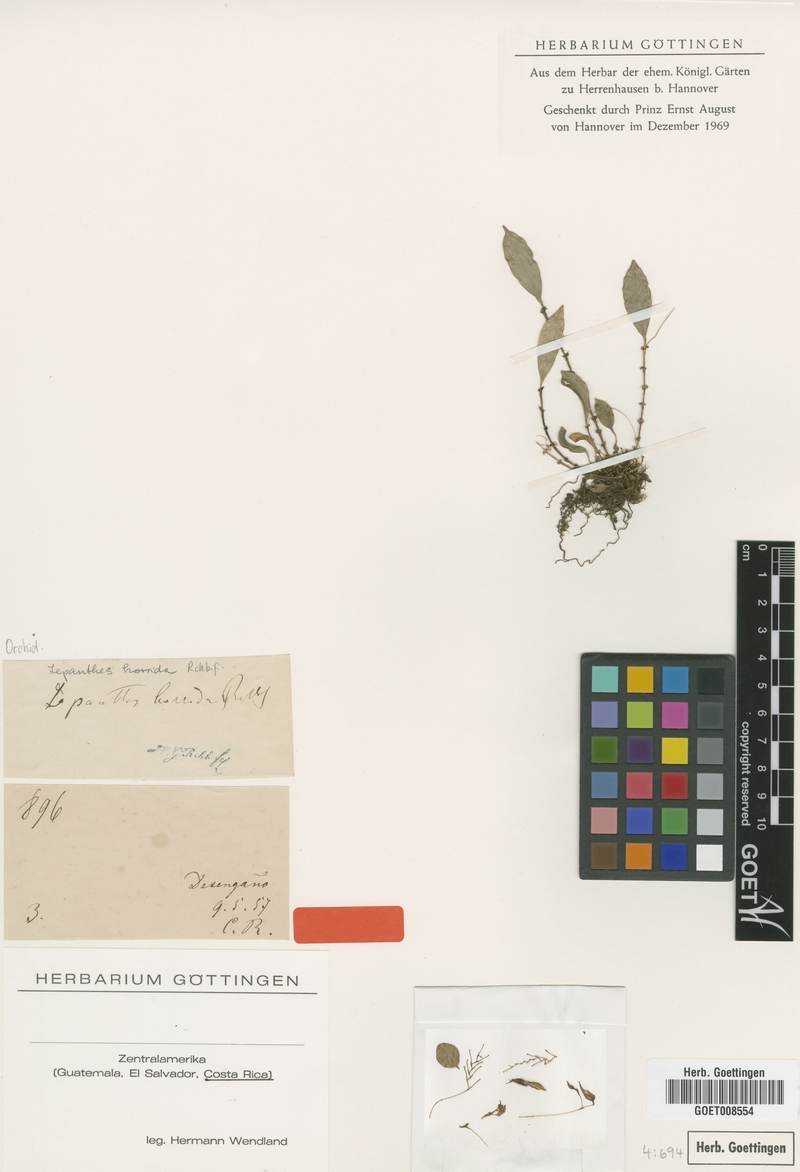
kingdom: Plantae
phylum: Tracheophyta
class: Liliopsida
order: Asparagales
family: Orchidaceae
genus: Lepanthes
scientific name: Lepanthes horrida
